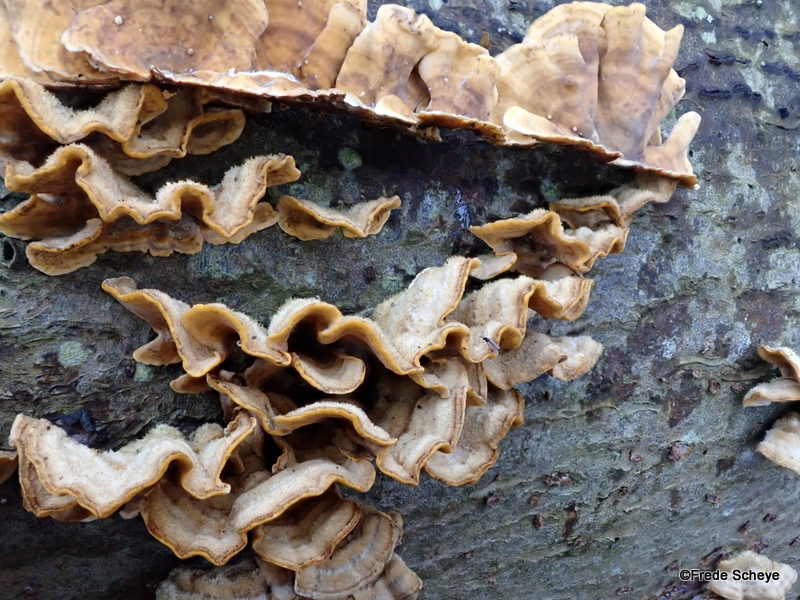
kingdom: Fungi
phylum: Basidiomycota
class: Agaricomycetes
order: Russulales
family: Stereaceae
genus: Stereum
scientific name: Stereum hirsutum
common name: håret lædersvamp
